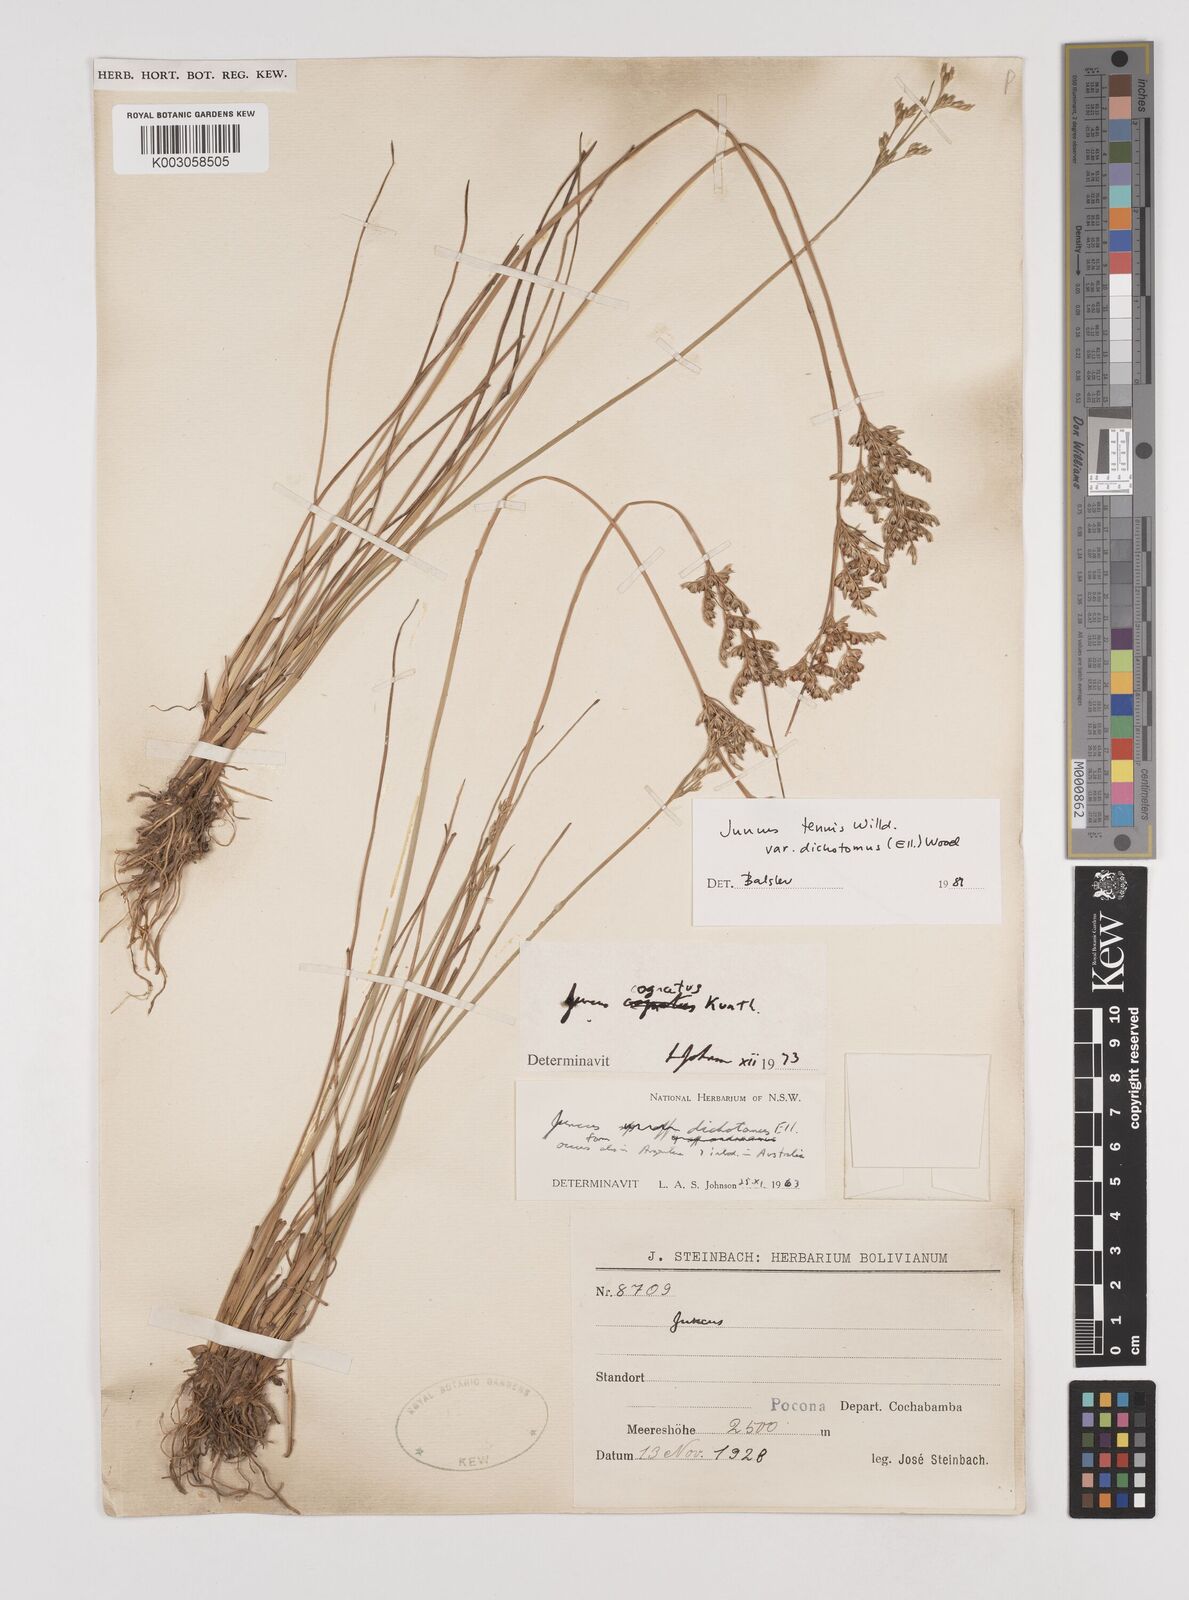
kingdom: Plantae
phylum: Tracheophyta
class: Liliopsida
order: Poales
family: Juncaceae
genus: Juncus
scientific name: Juncus dichotomus
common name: Forked rush
